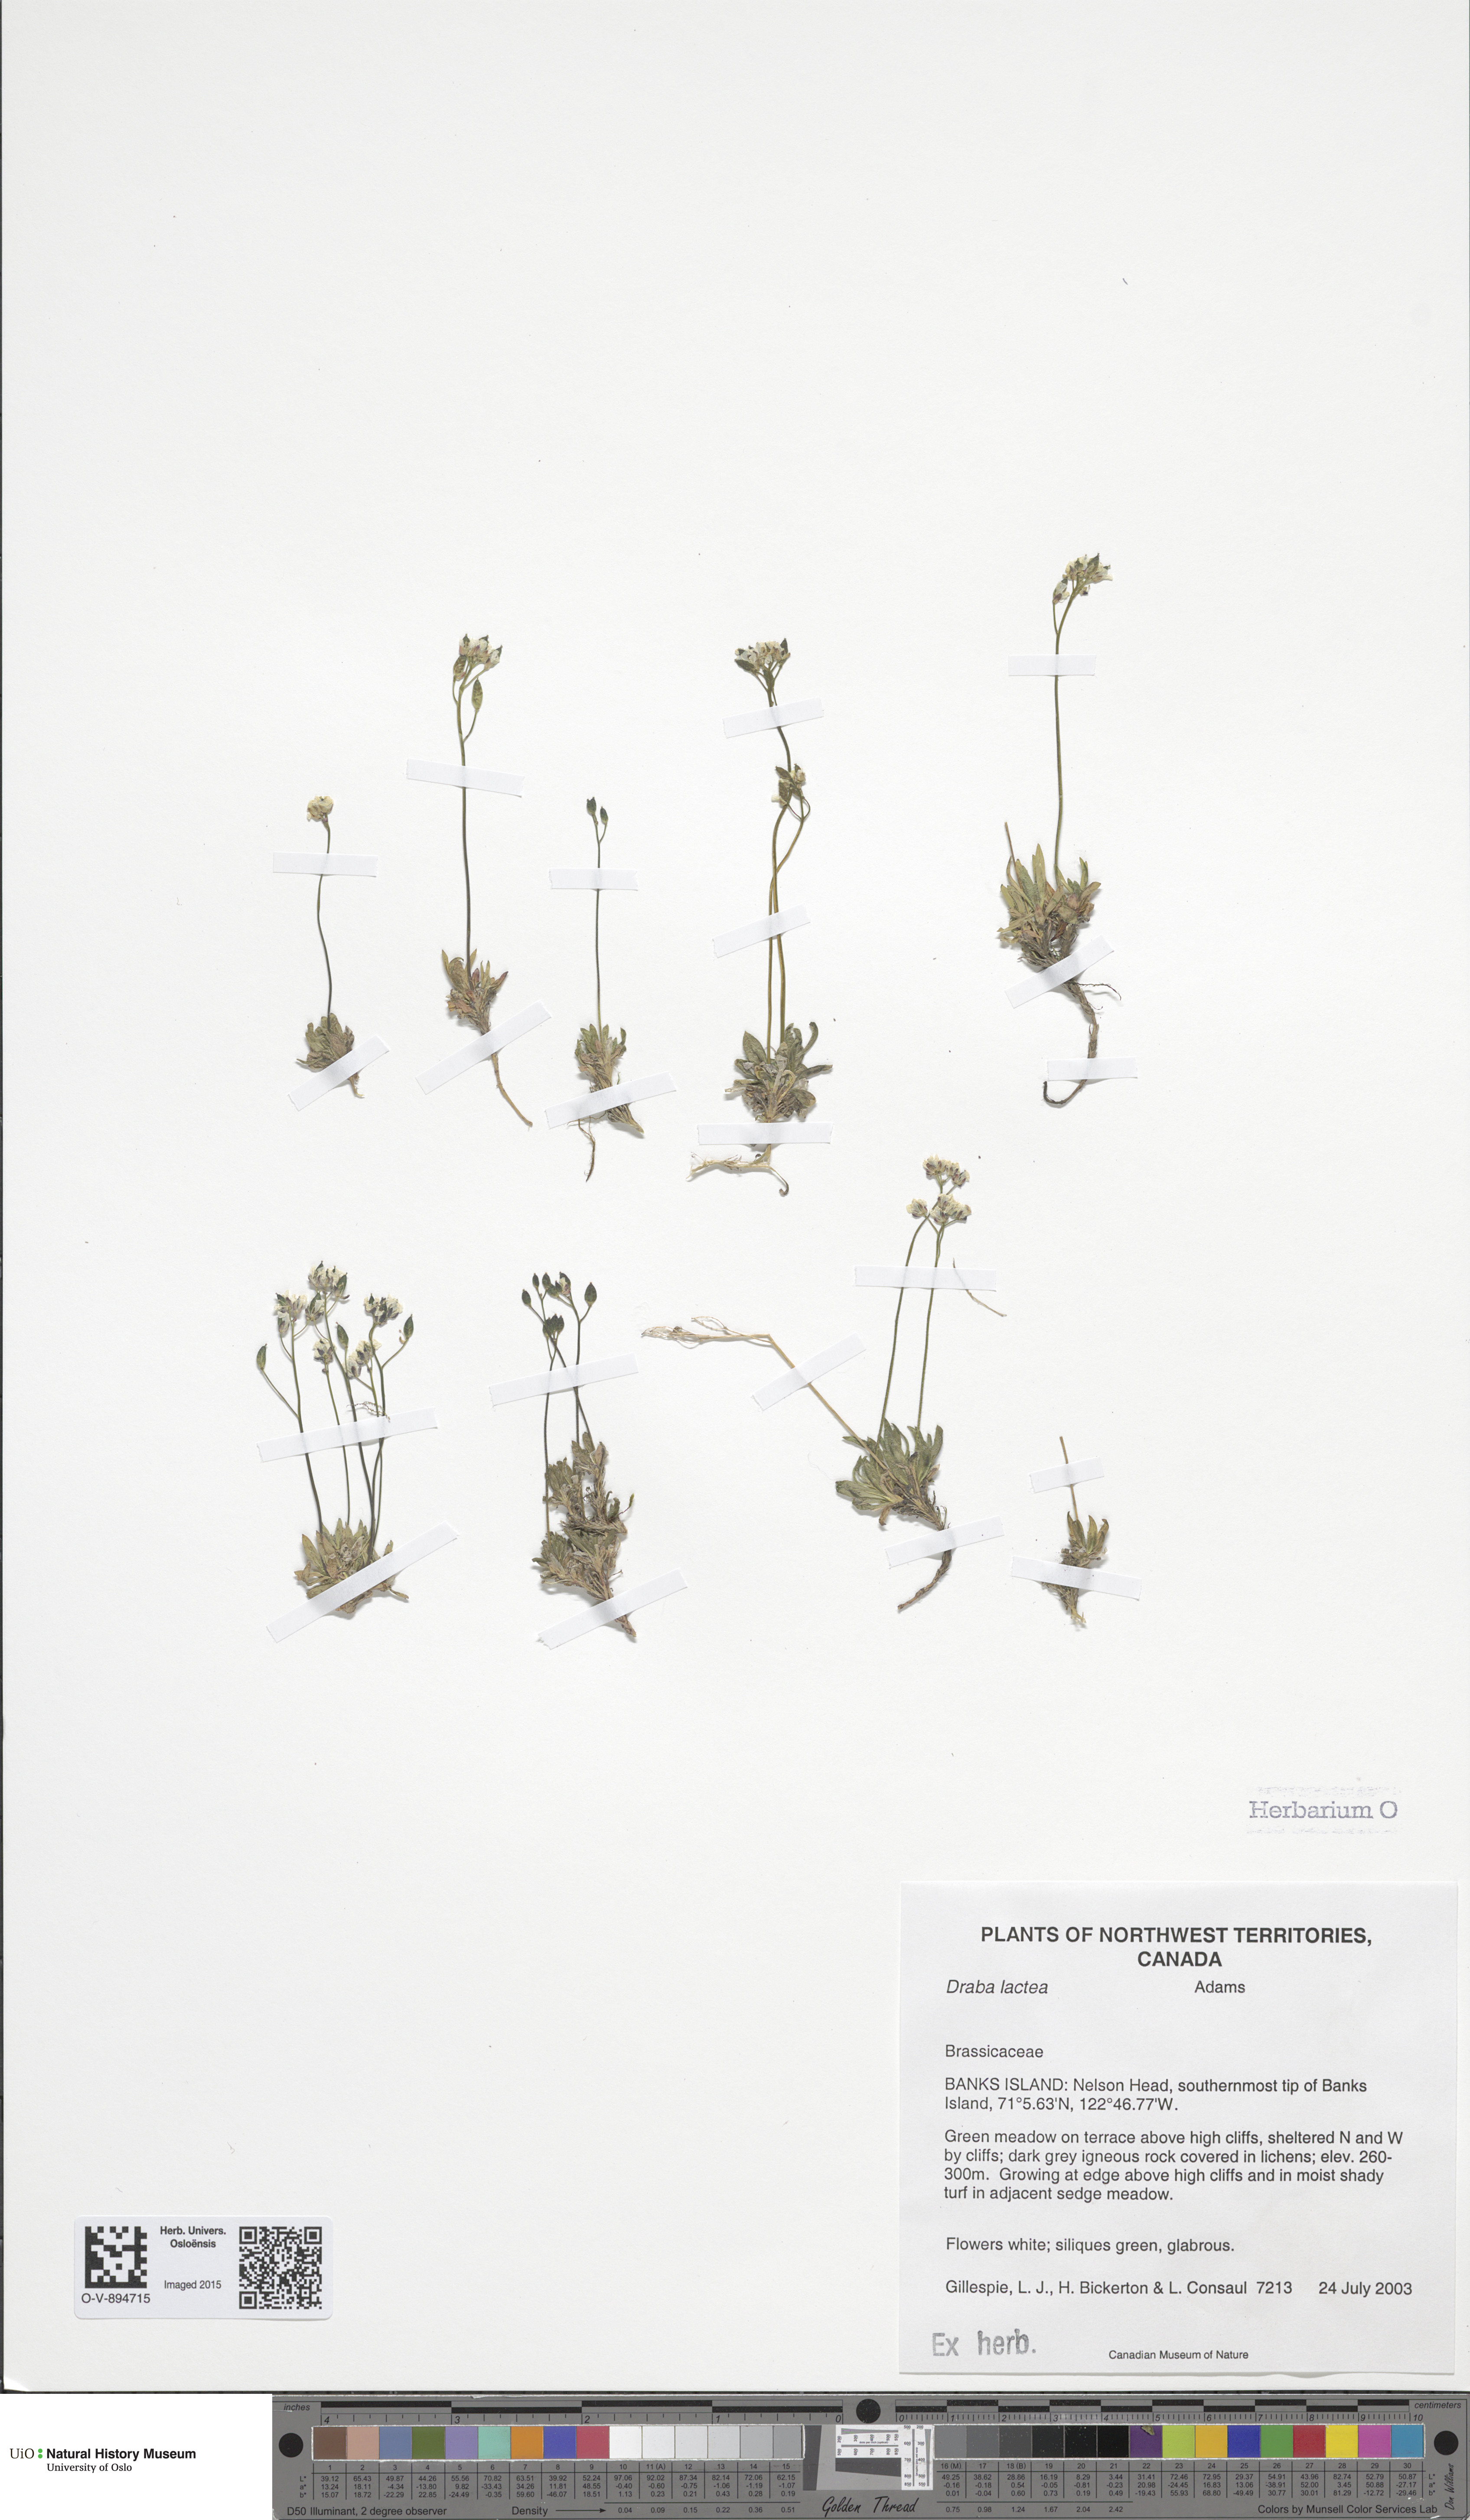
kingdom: Plantae
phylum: Tracheophyta
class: Magnoliopsida
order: Brassicales
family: Brassicaceae
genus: Draba
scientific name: Draba lactea
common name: Milky draba
